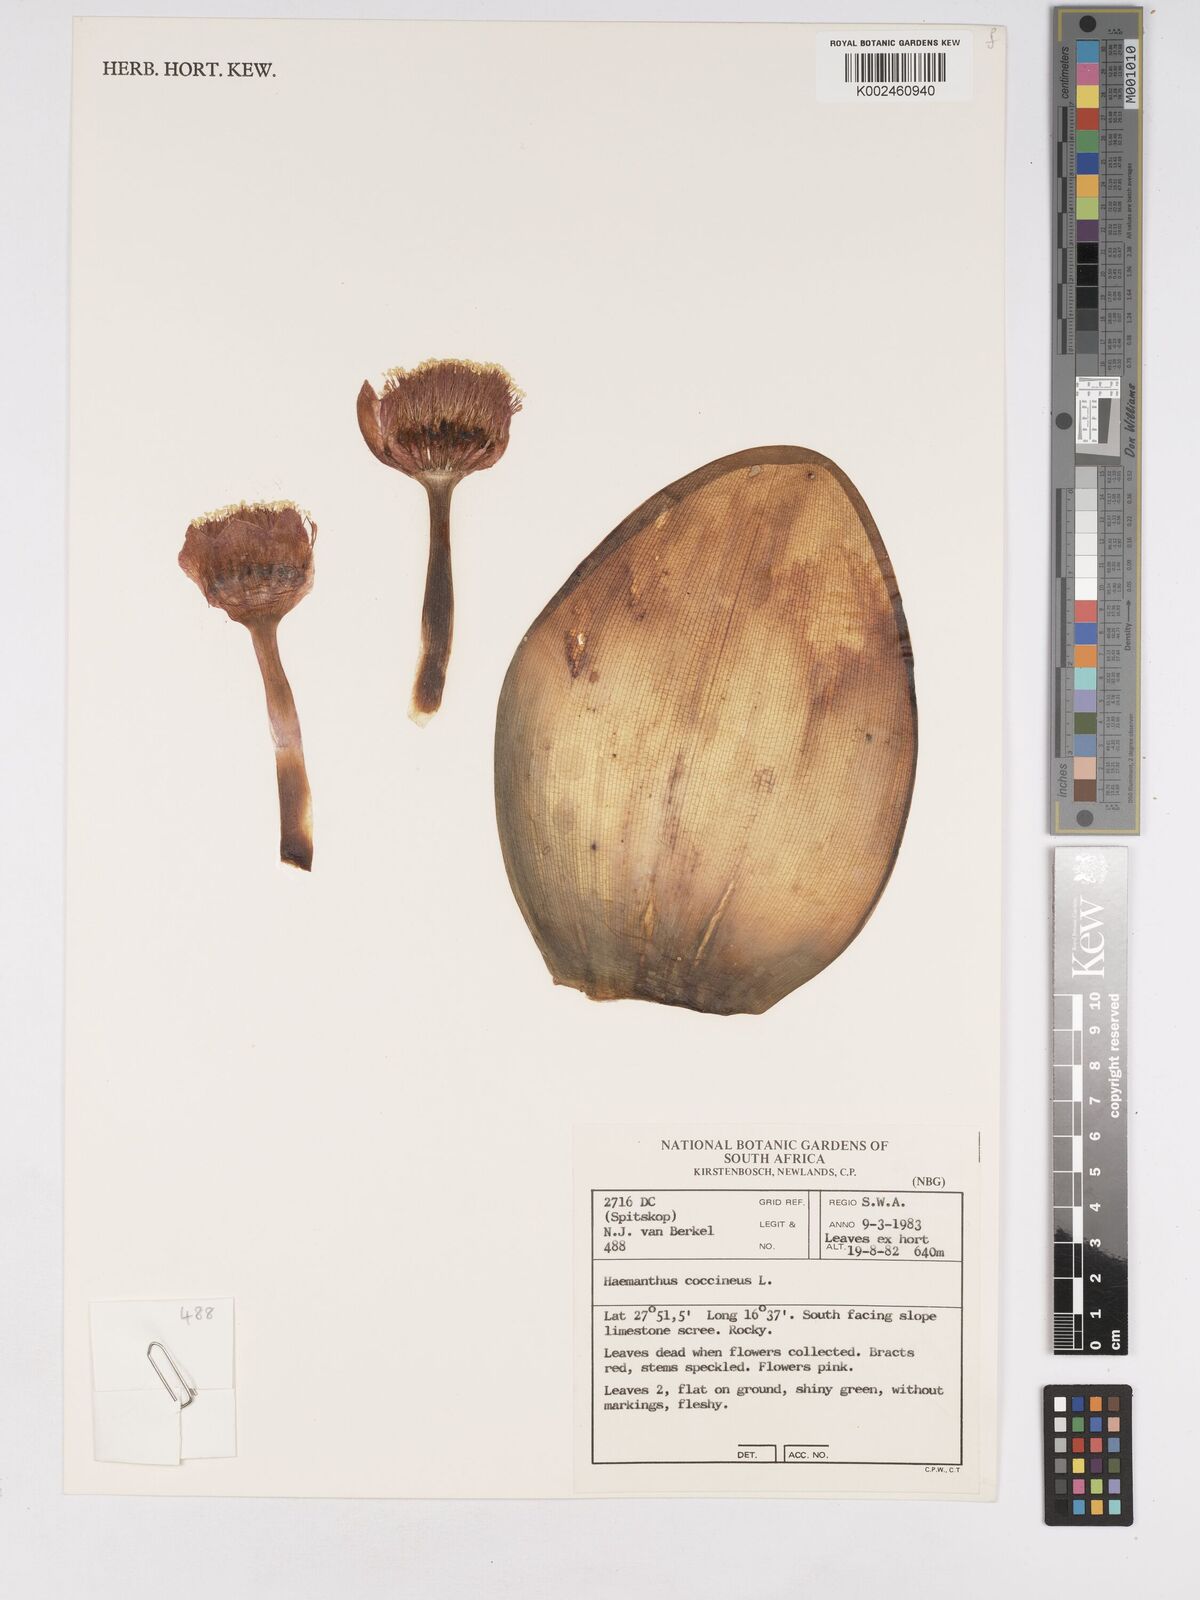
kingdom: Plantae
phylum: Tracheophyta
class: Liliopsida
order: Asparagales
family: Amaryllidaceae
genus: Haemanthus
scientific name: Haemanthus coccineus
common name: Cape-tulip
